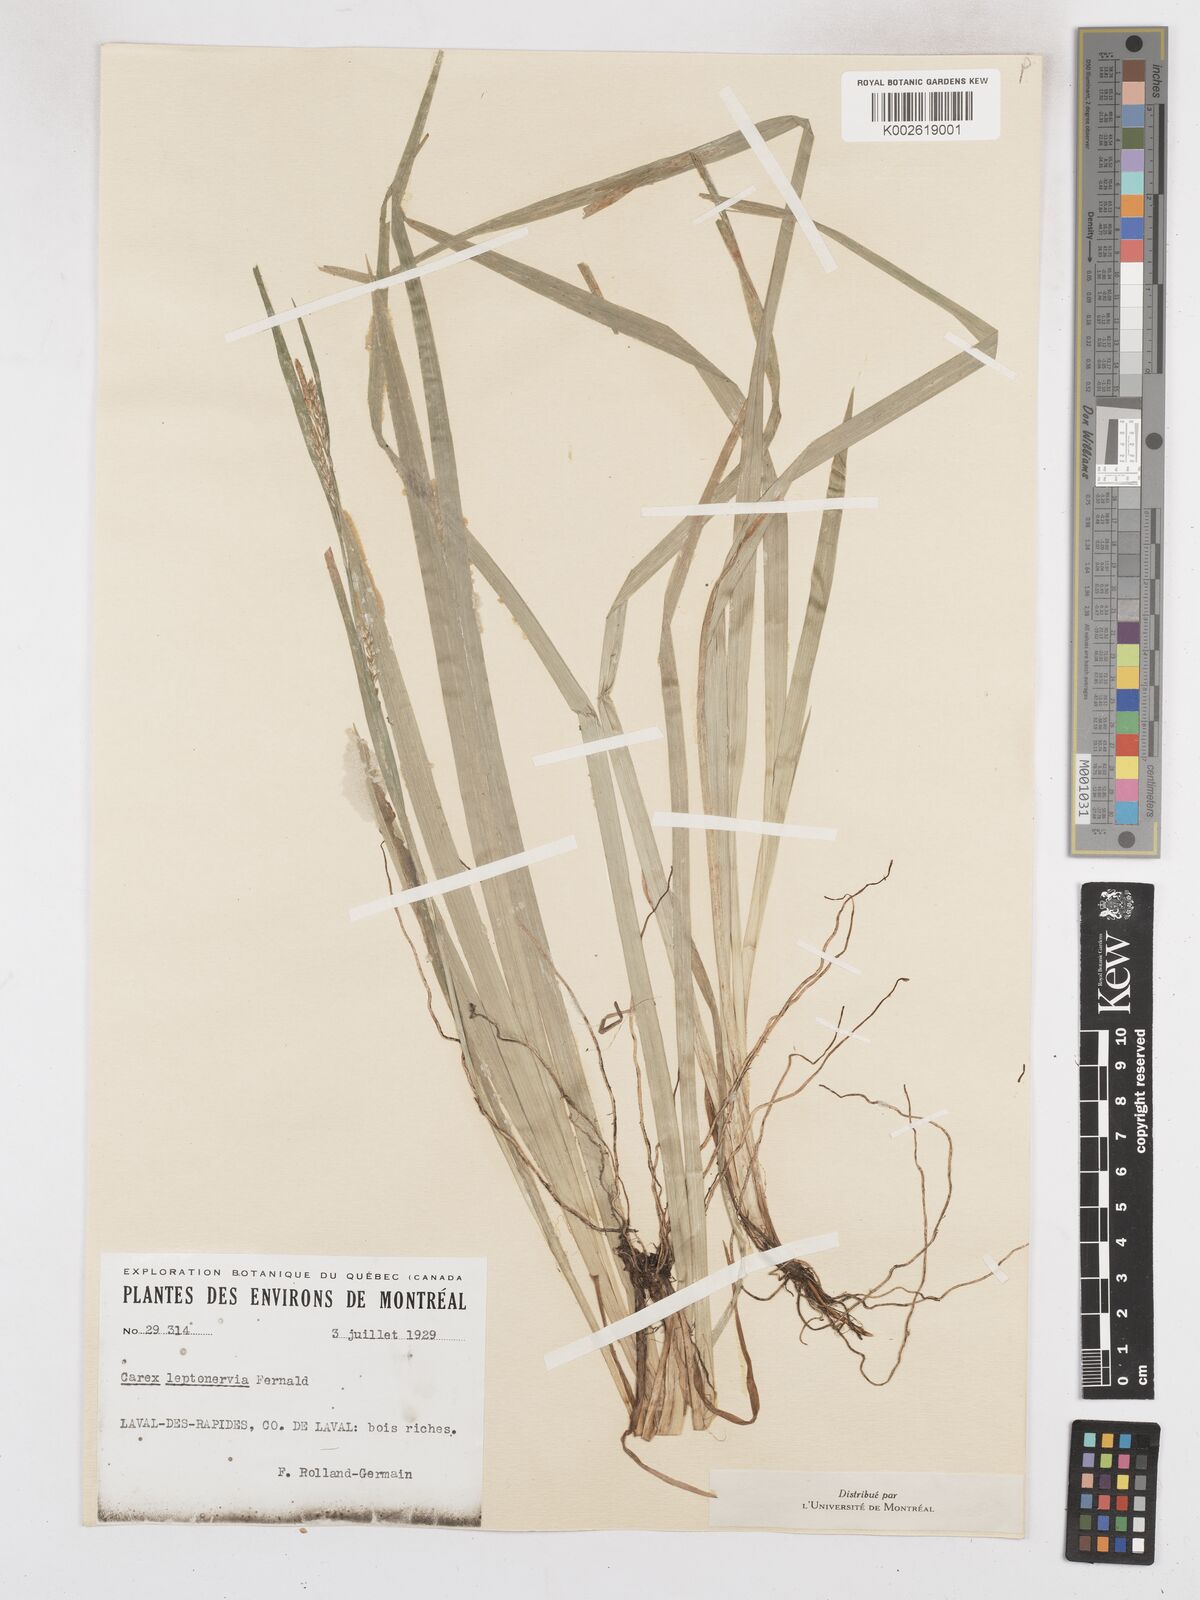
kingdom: Plantae
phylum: Tracheophyta
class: Liliopsida
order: Poales
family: Cyperaceae
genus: Carex
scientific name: Carex leptonervia
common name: Few-nerved wood sedge
